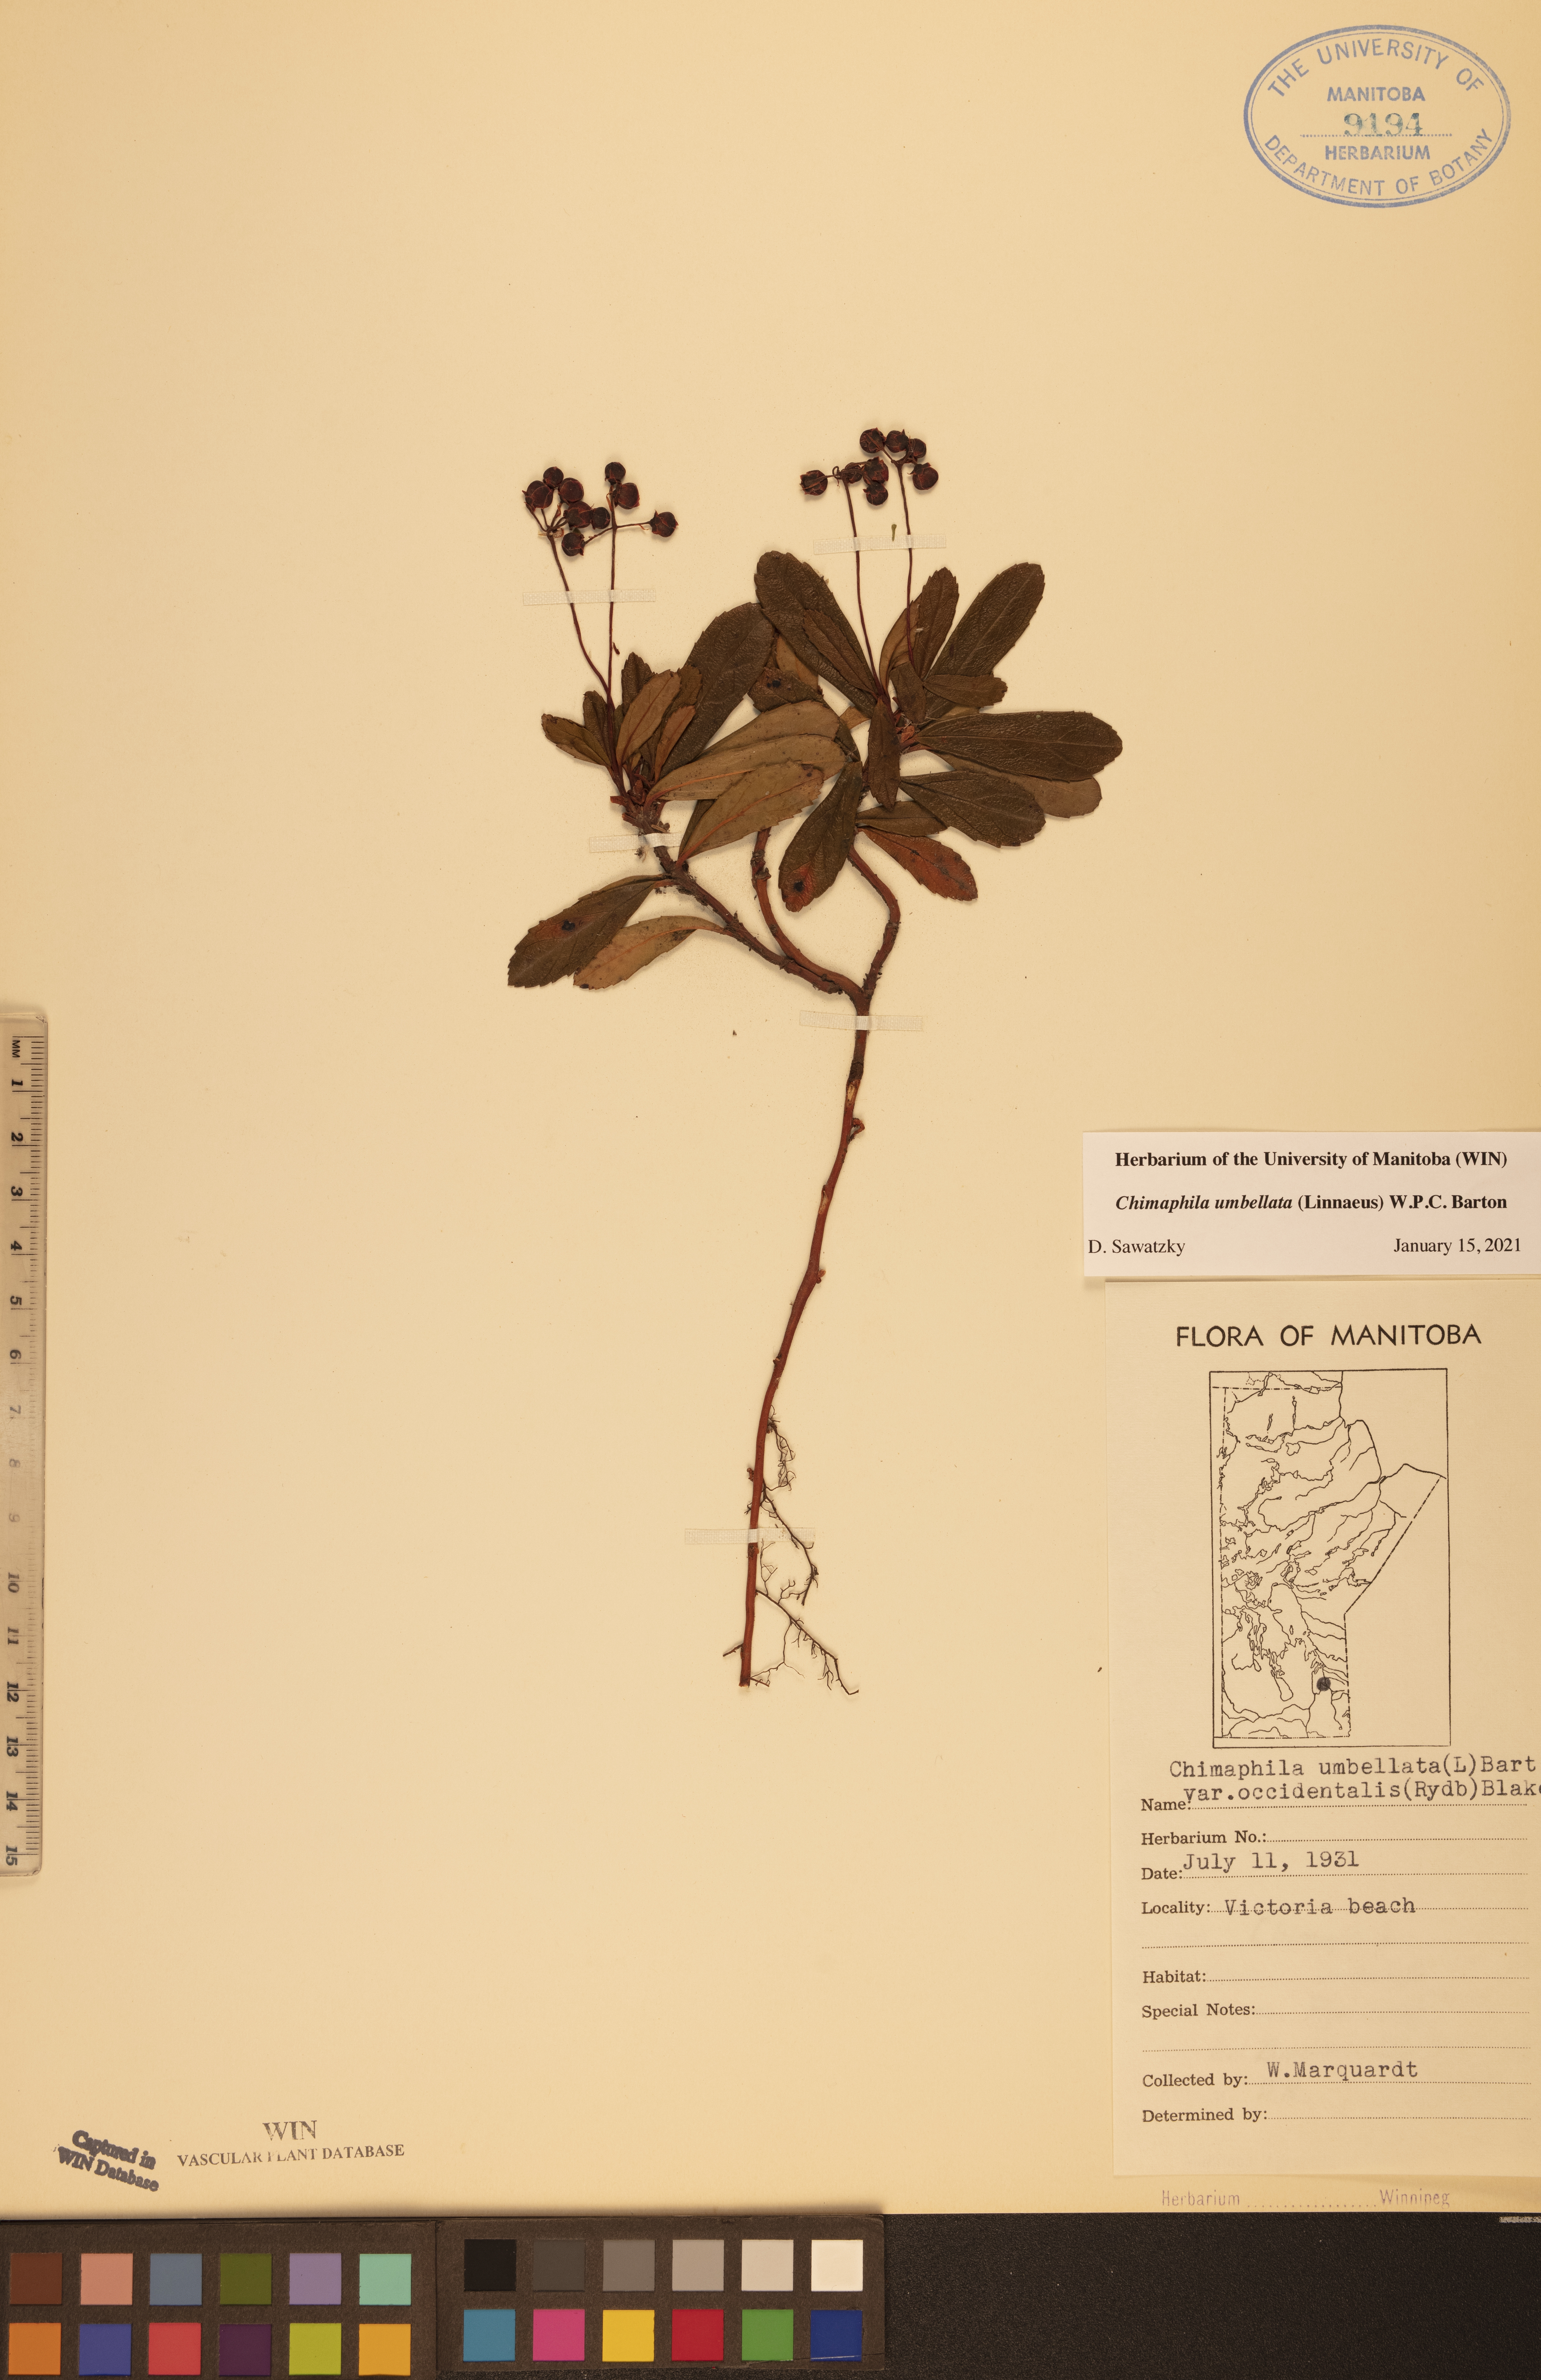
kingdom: Plantae
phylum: Tracheophyta
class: Magnoliopsida
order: Ericales
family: Ericaceae
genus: Chimaphila
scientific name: Chimaphila umbellata
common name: Pipsissewa
